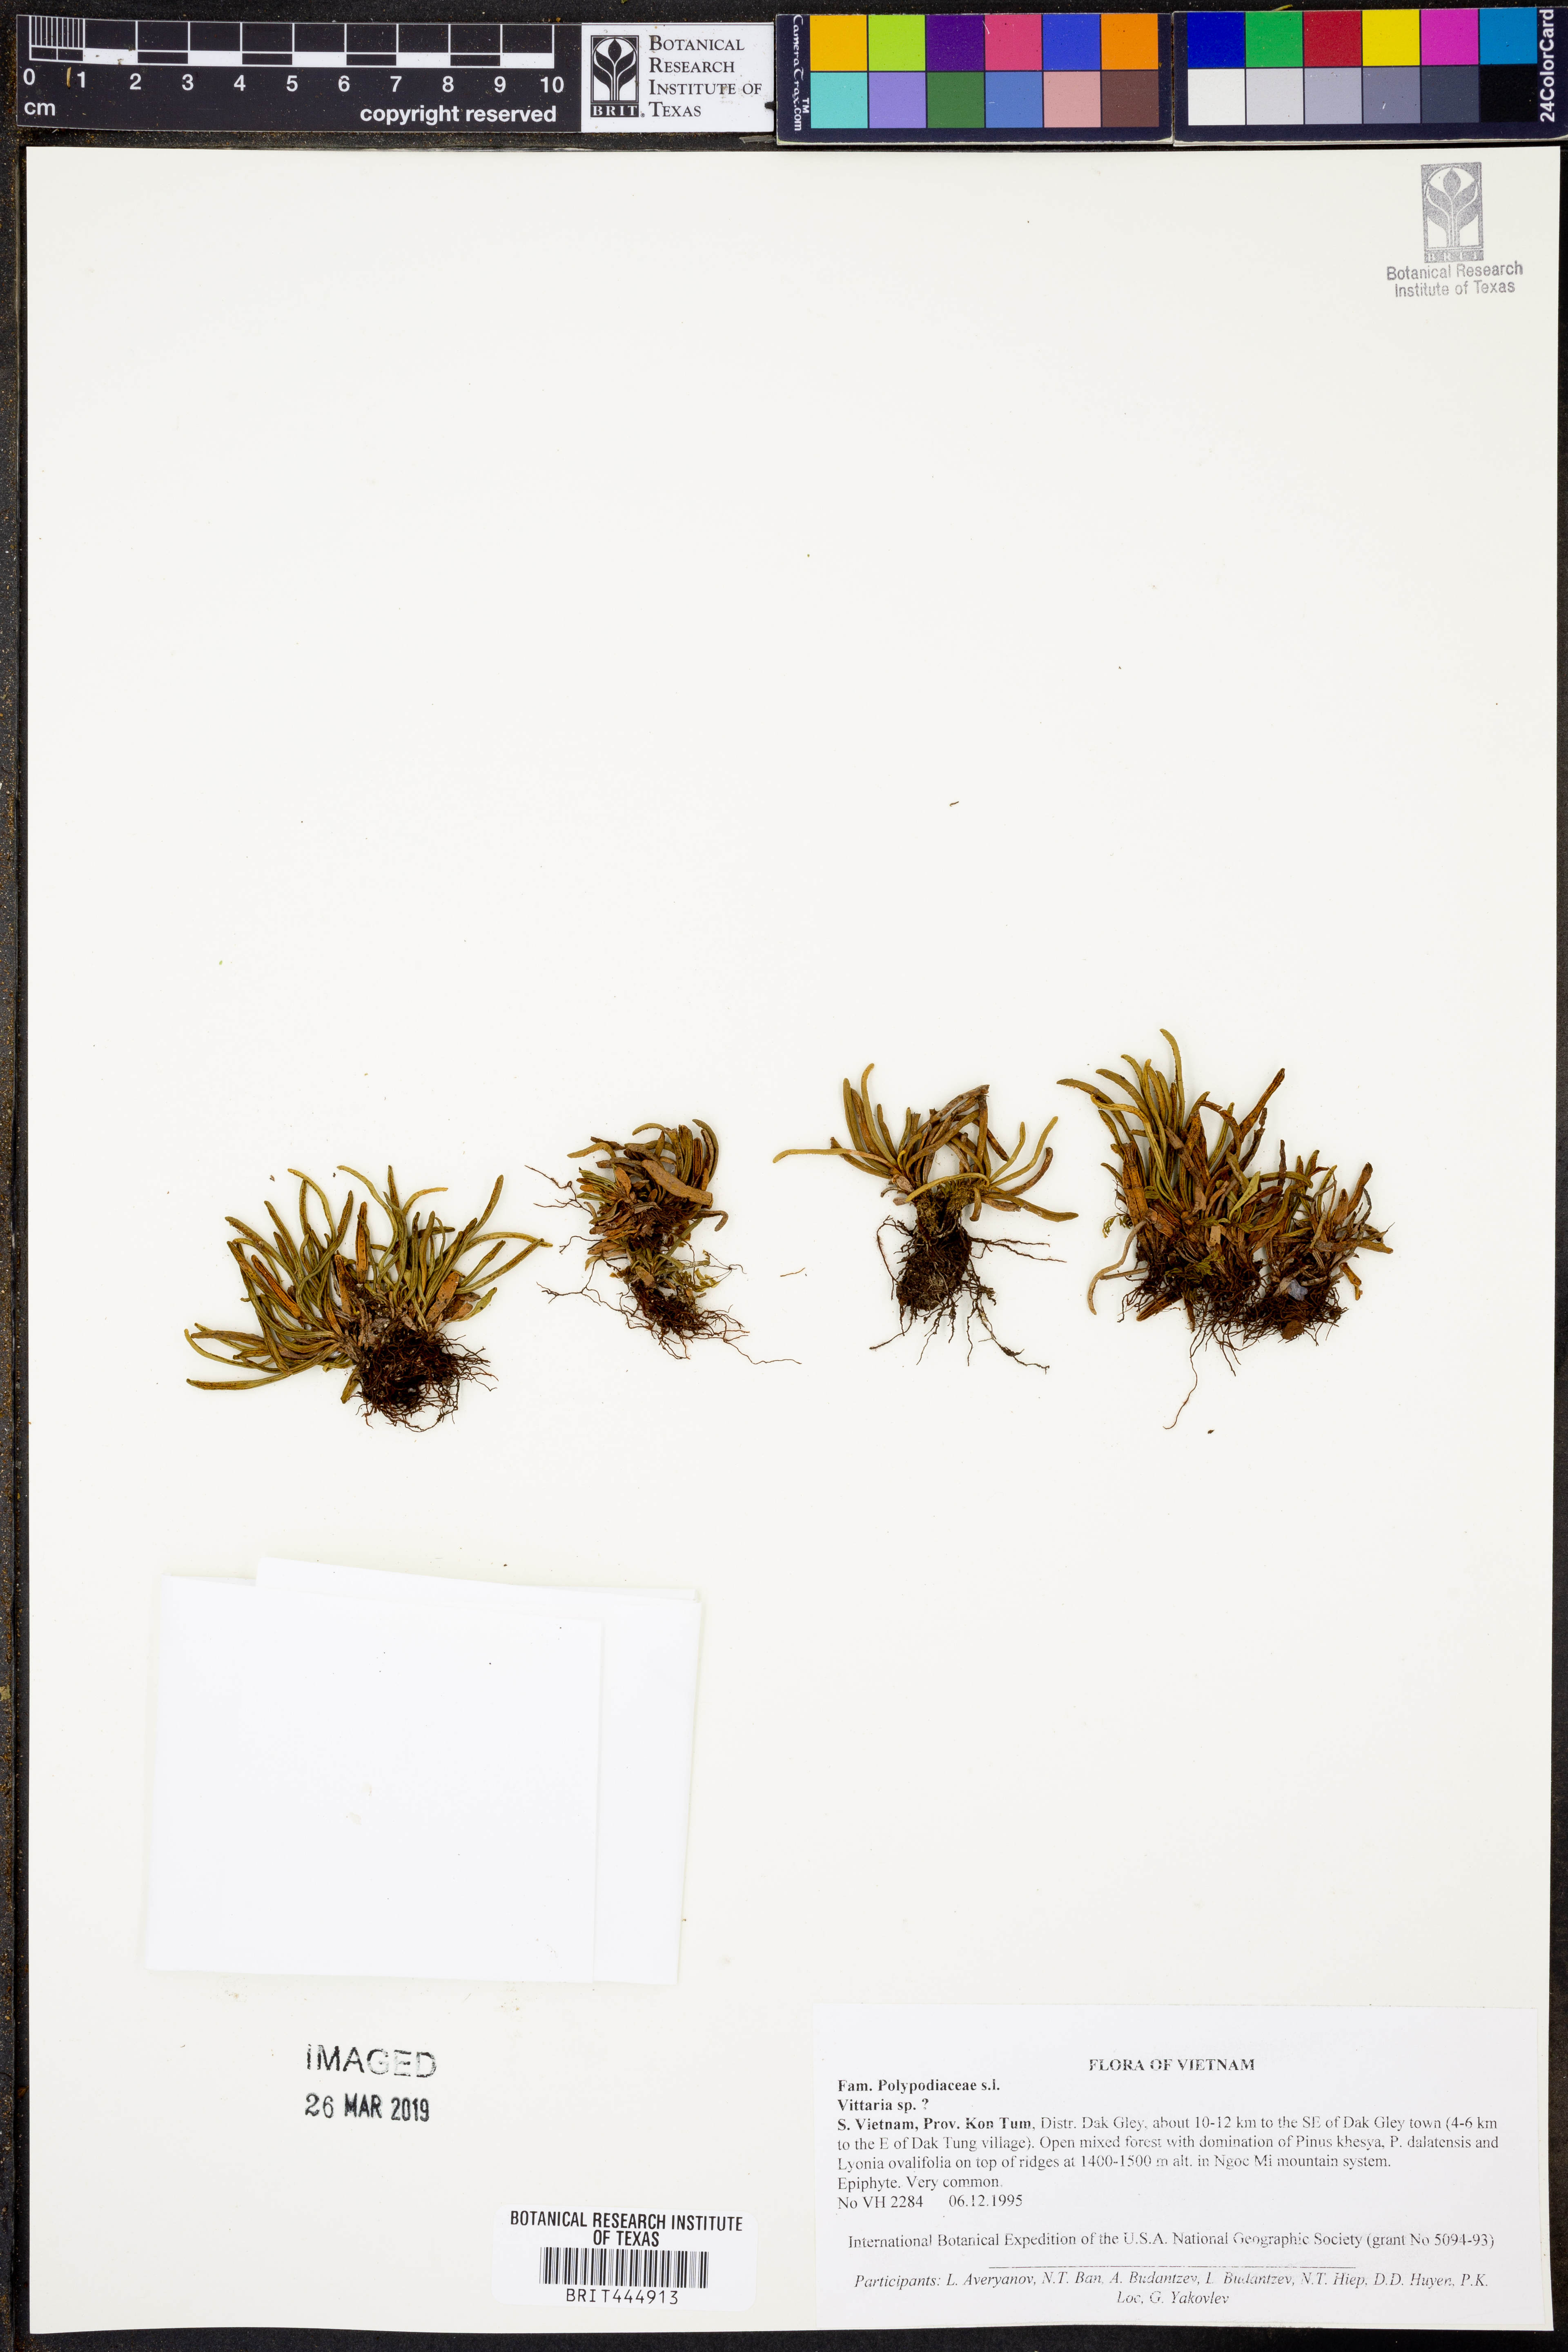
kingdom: Plantae
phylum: Tracheophyta
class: Polypodiopsida
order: Polypodiales
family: Pteridaceae
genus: Vittaria
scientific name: Vittaria
